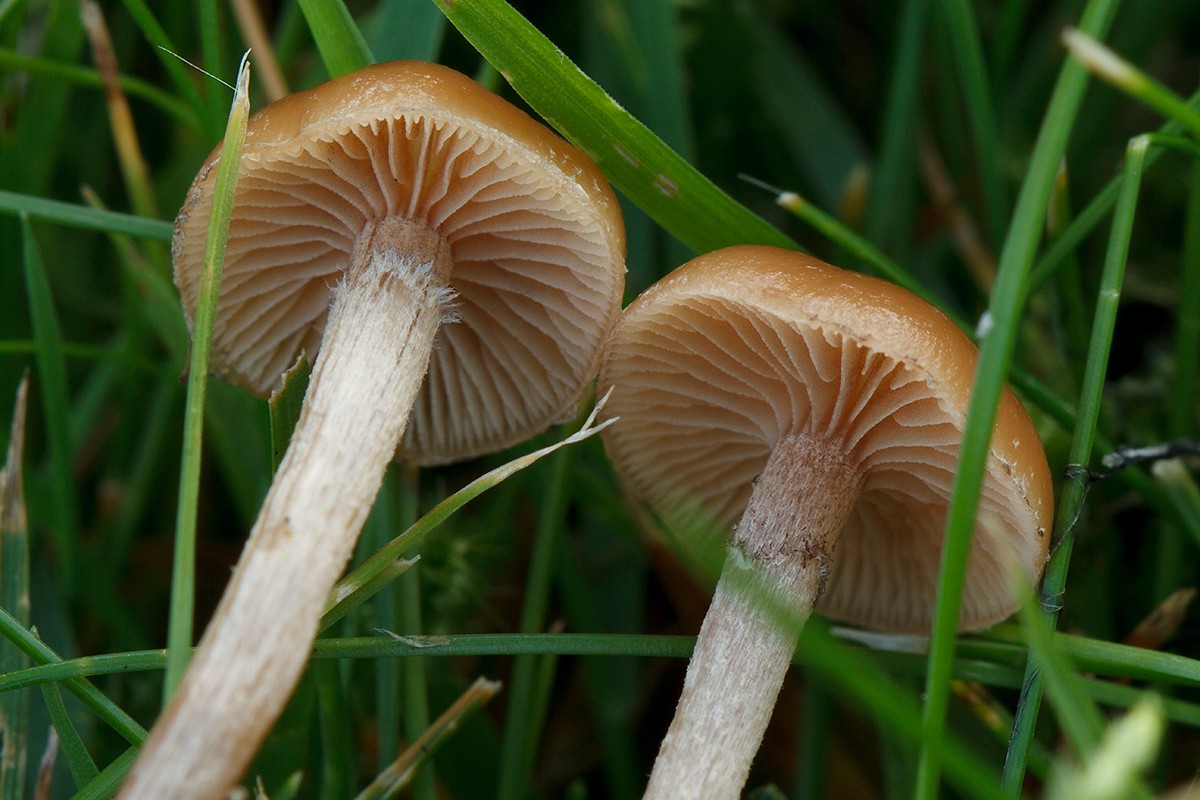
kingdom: Fungi
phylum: Basidiomycota
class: Agaricomycetes
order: Agaricales
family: Strophariaceae
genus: Deconica
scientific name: Deconica inquilina
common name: græs-stråhat
